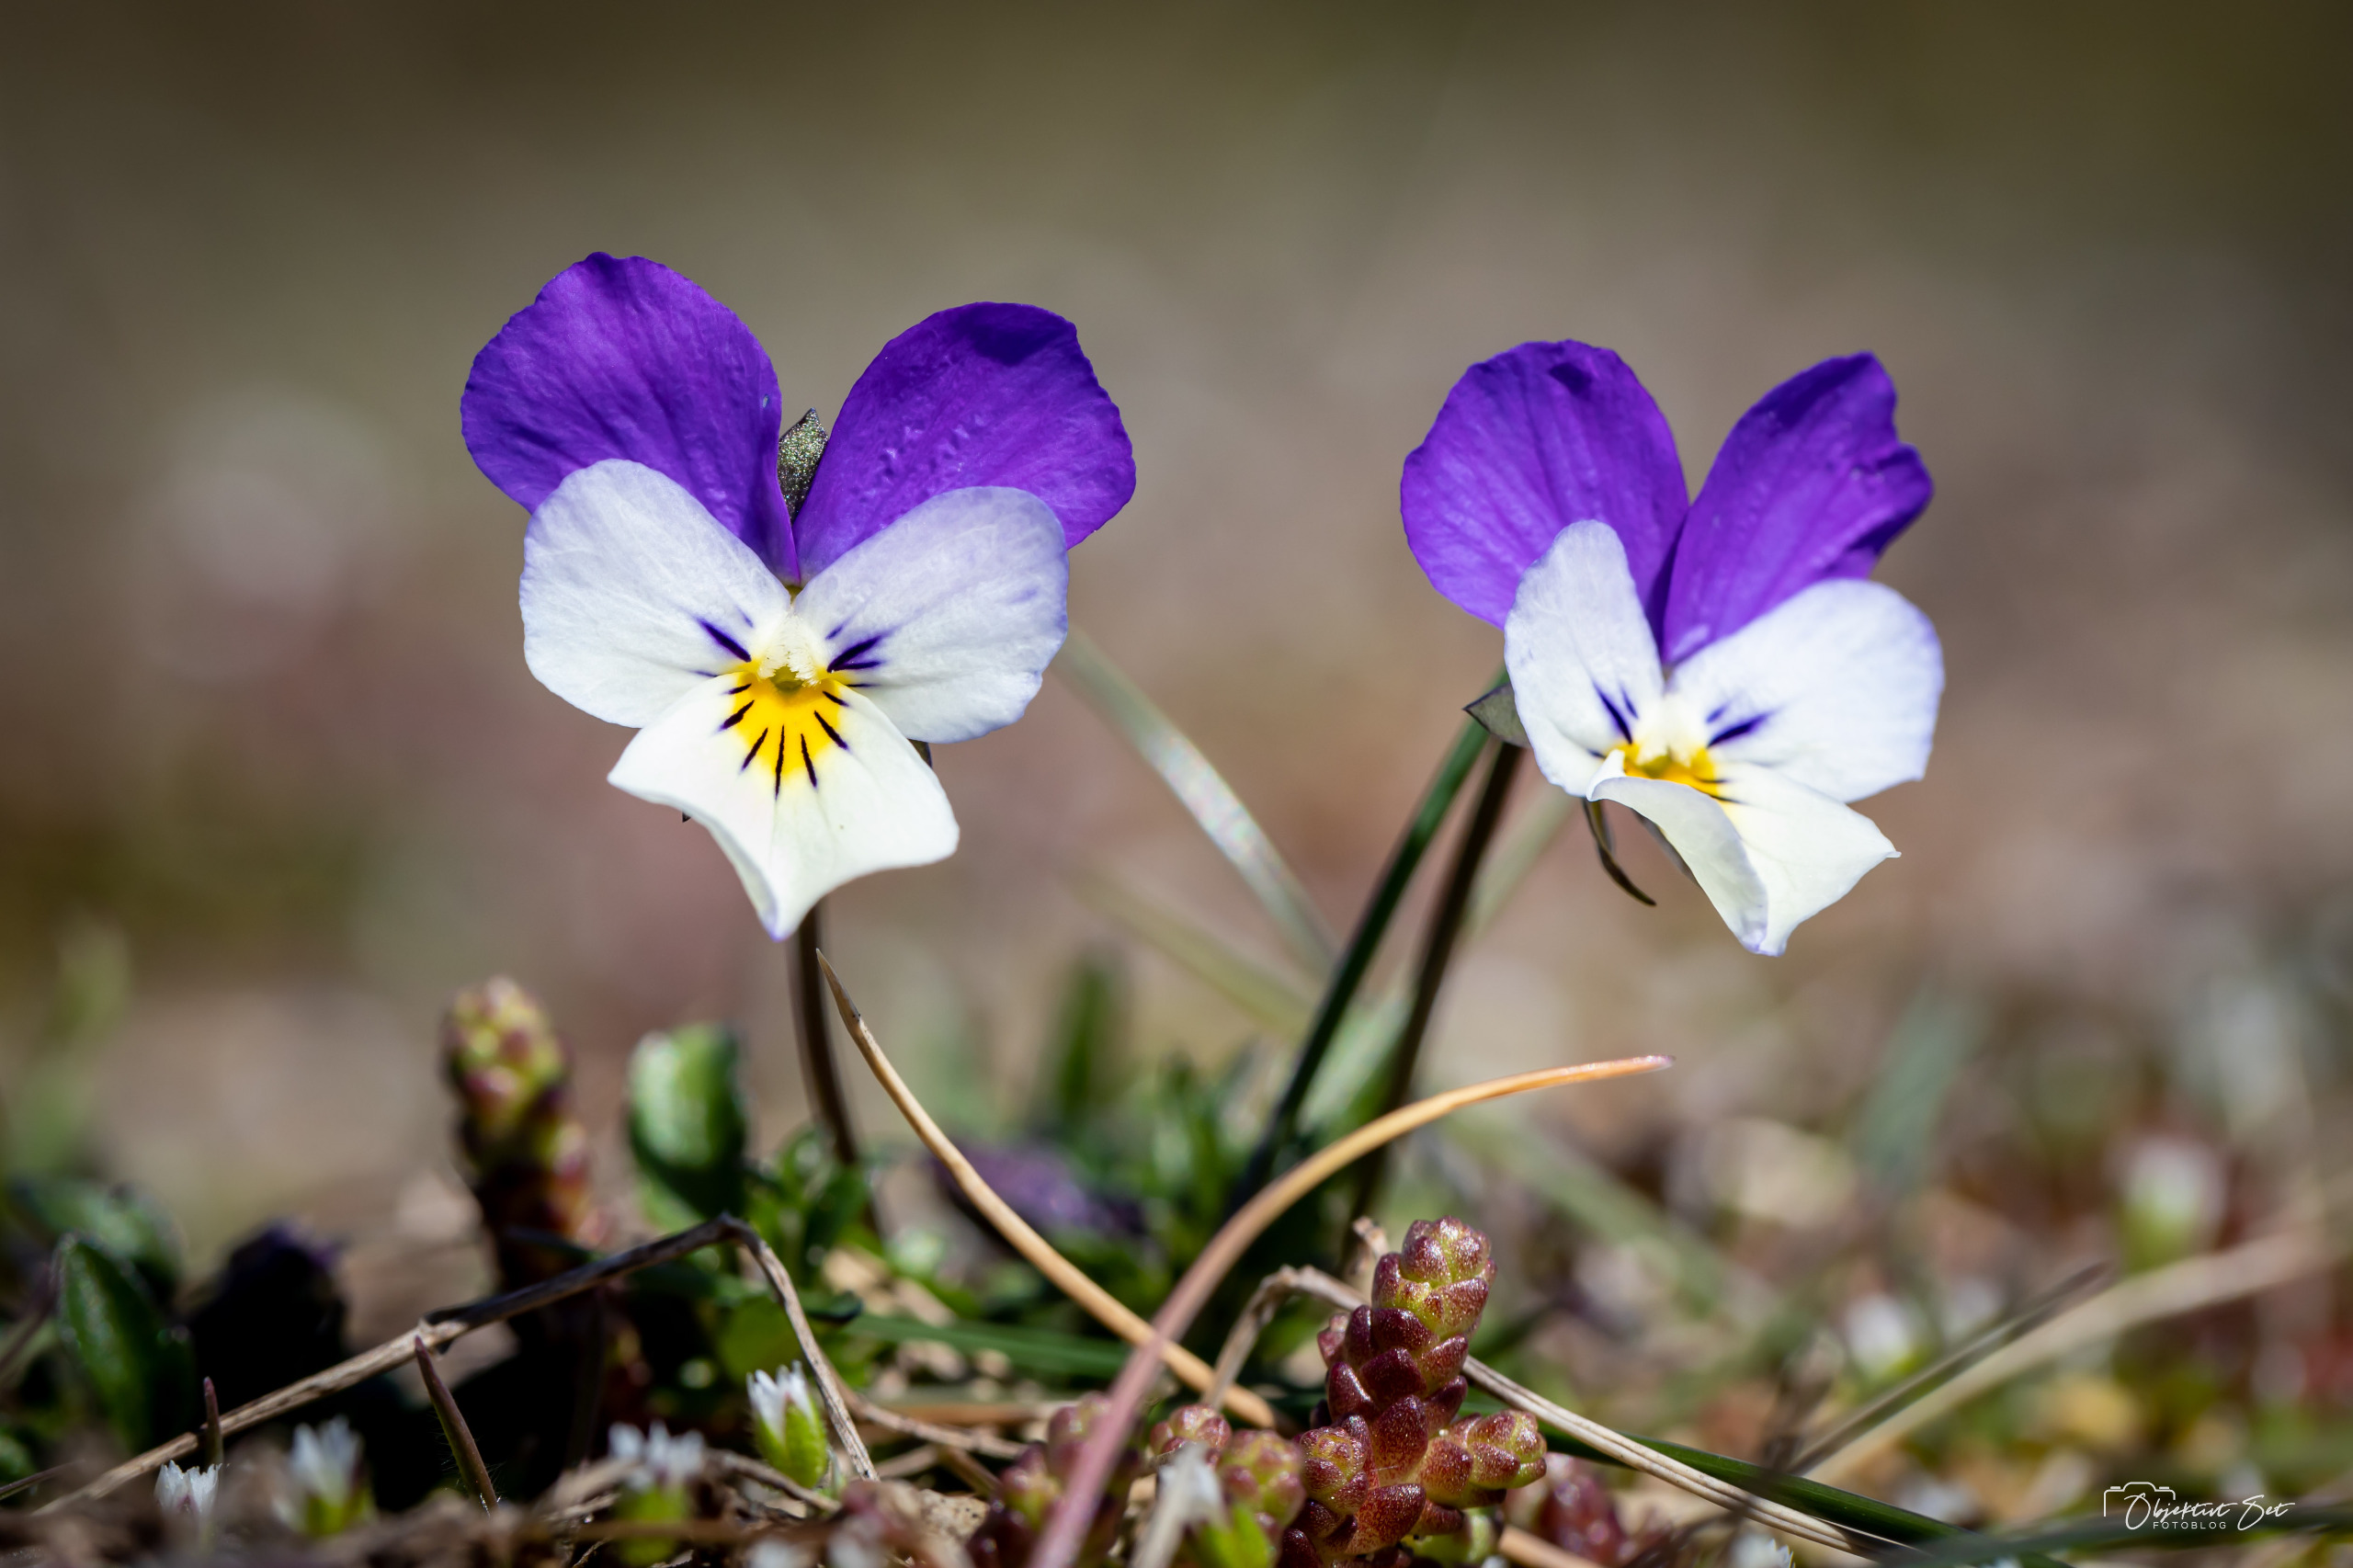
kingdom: Plantae
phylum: Tracheophyta
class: Magnoliopsida
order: Malpighiales
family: Violaceae
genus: Viola
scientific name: Viola tricolor
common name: Stedmoderblomst
